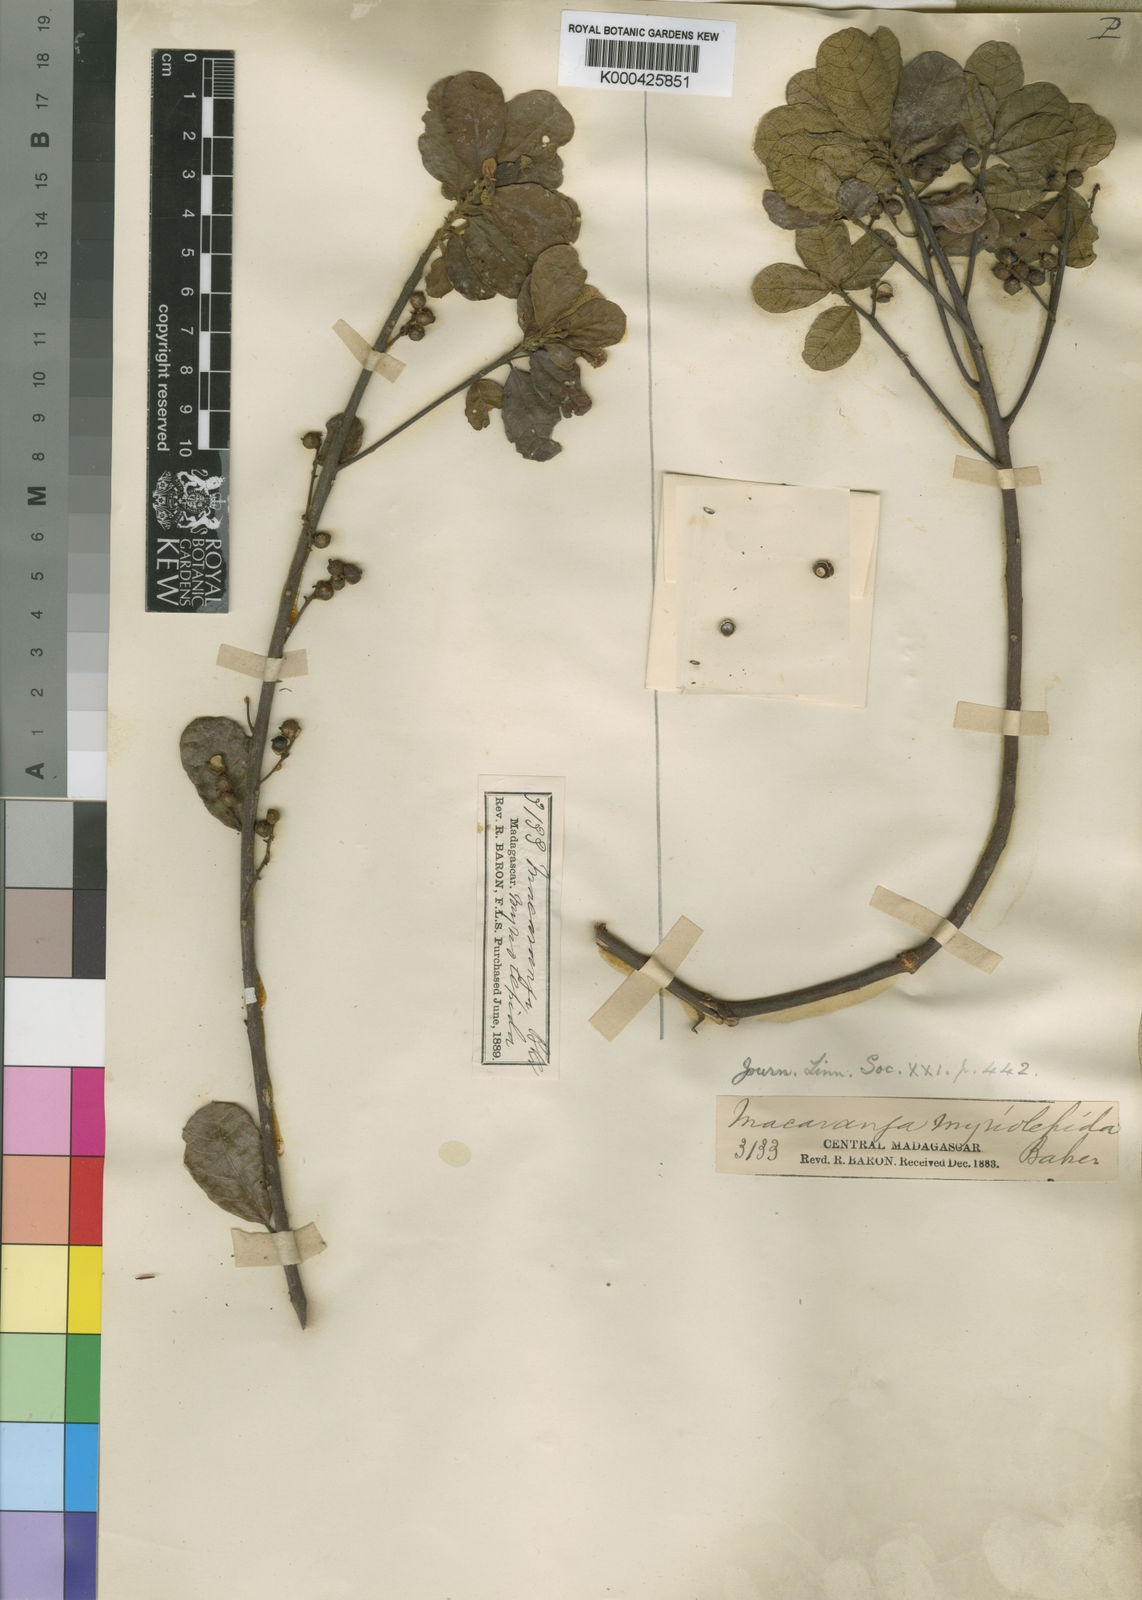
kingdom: Plantae
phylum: Tracheophyta
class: Magnoliopsida
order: Malpighiales
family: Euphorbiaceae
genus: Macaranga
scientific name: Macaranga myriolepida
